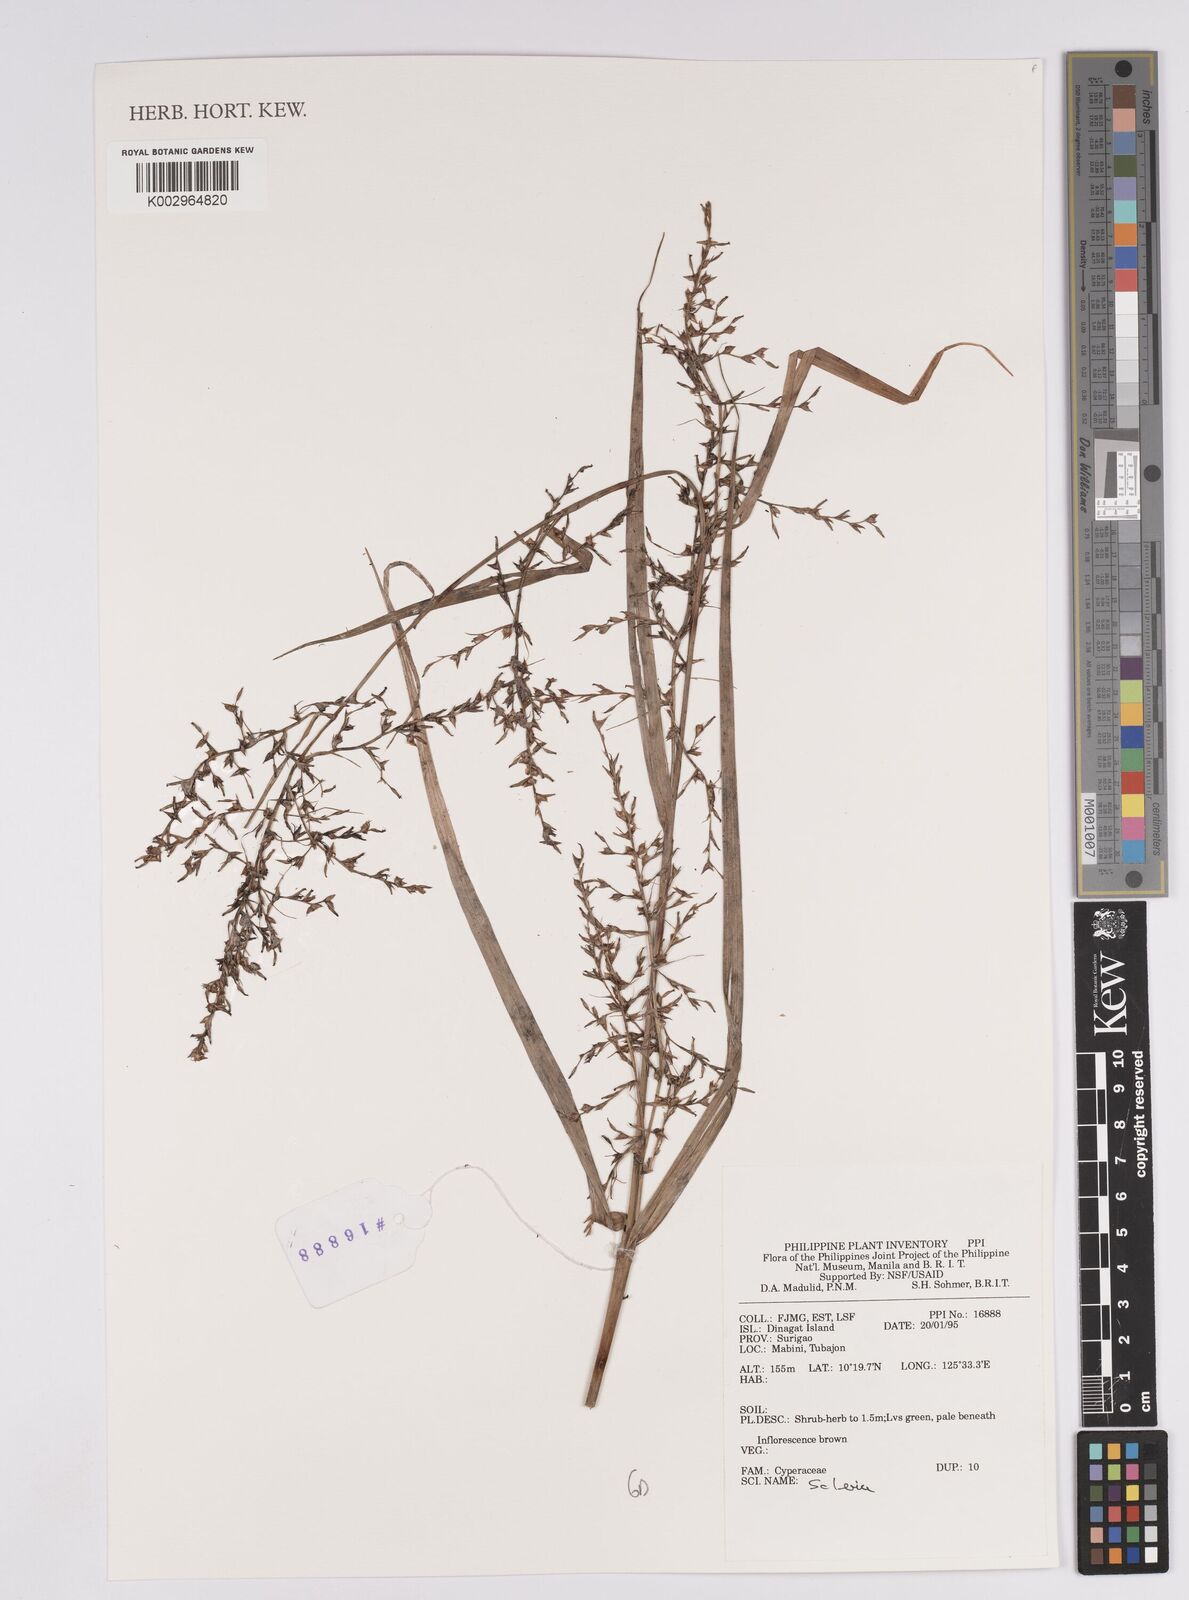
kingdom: Plantae
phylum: Tracheophyta
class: Liliopsida
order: Poales
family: Cyperaceae
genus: Scleria
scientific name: Scleria
